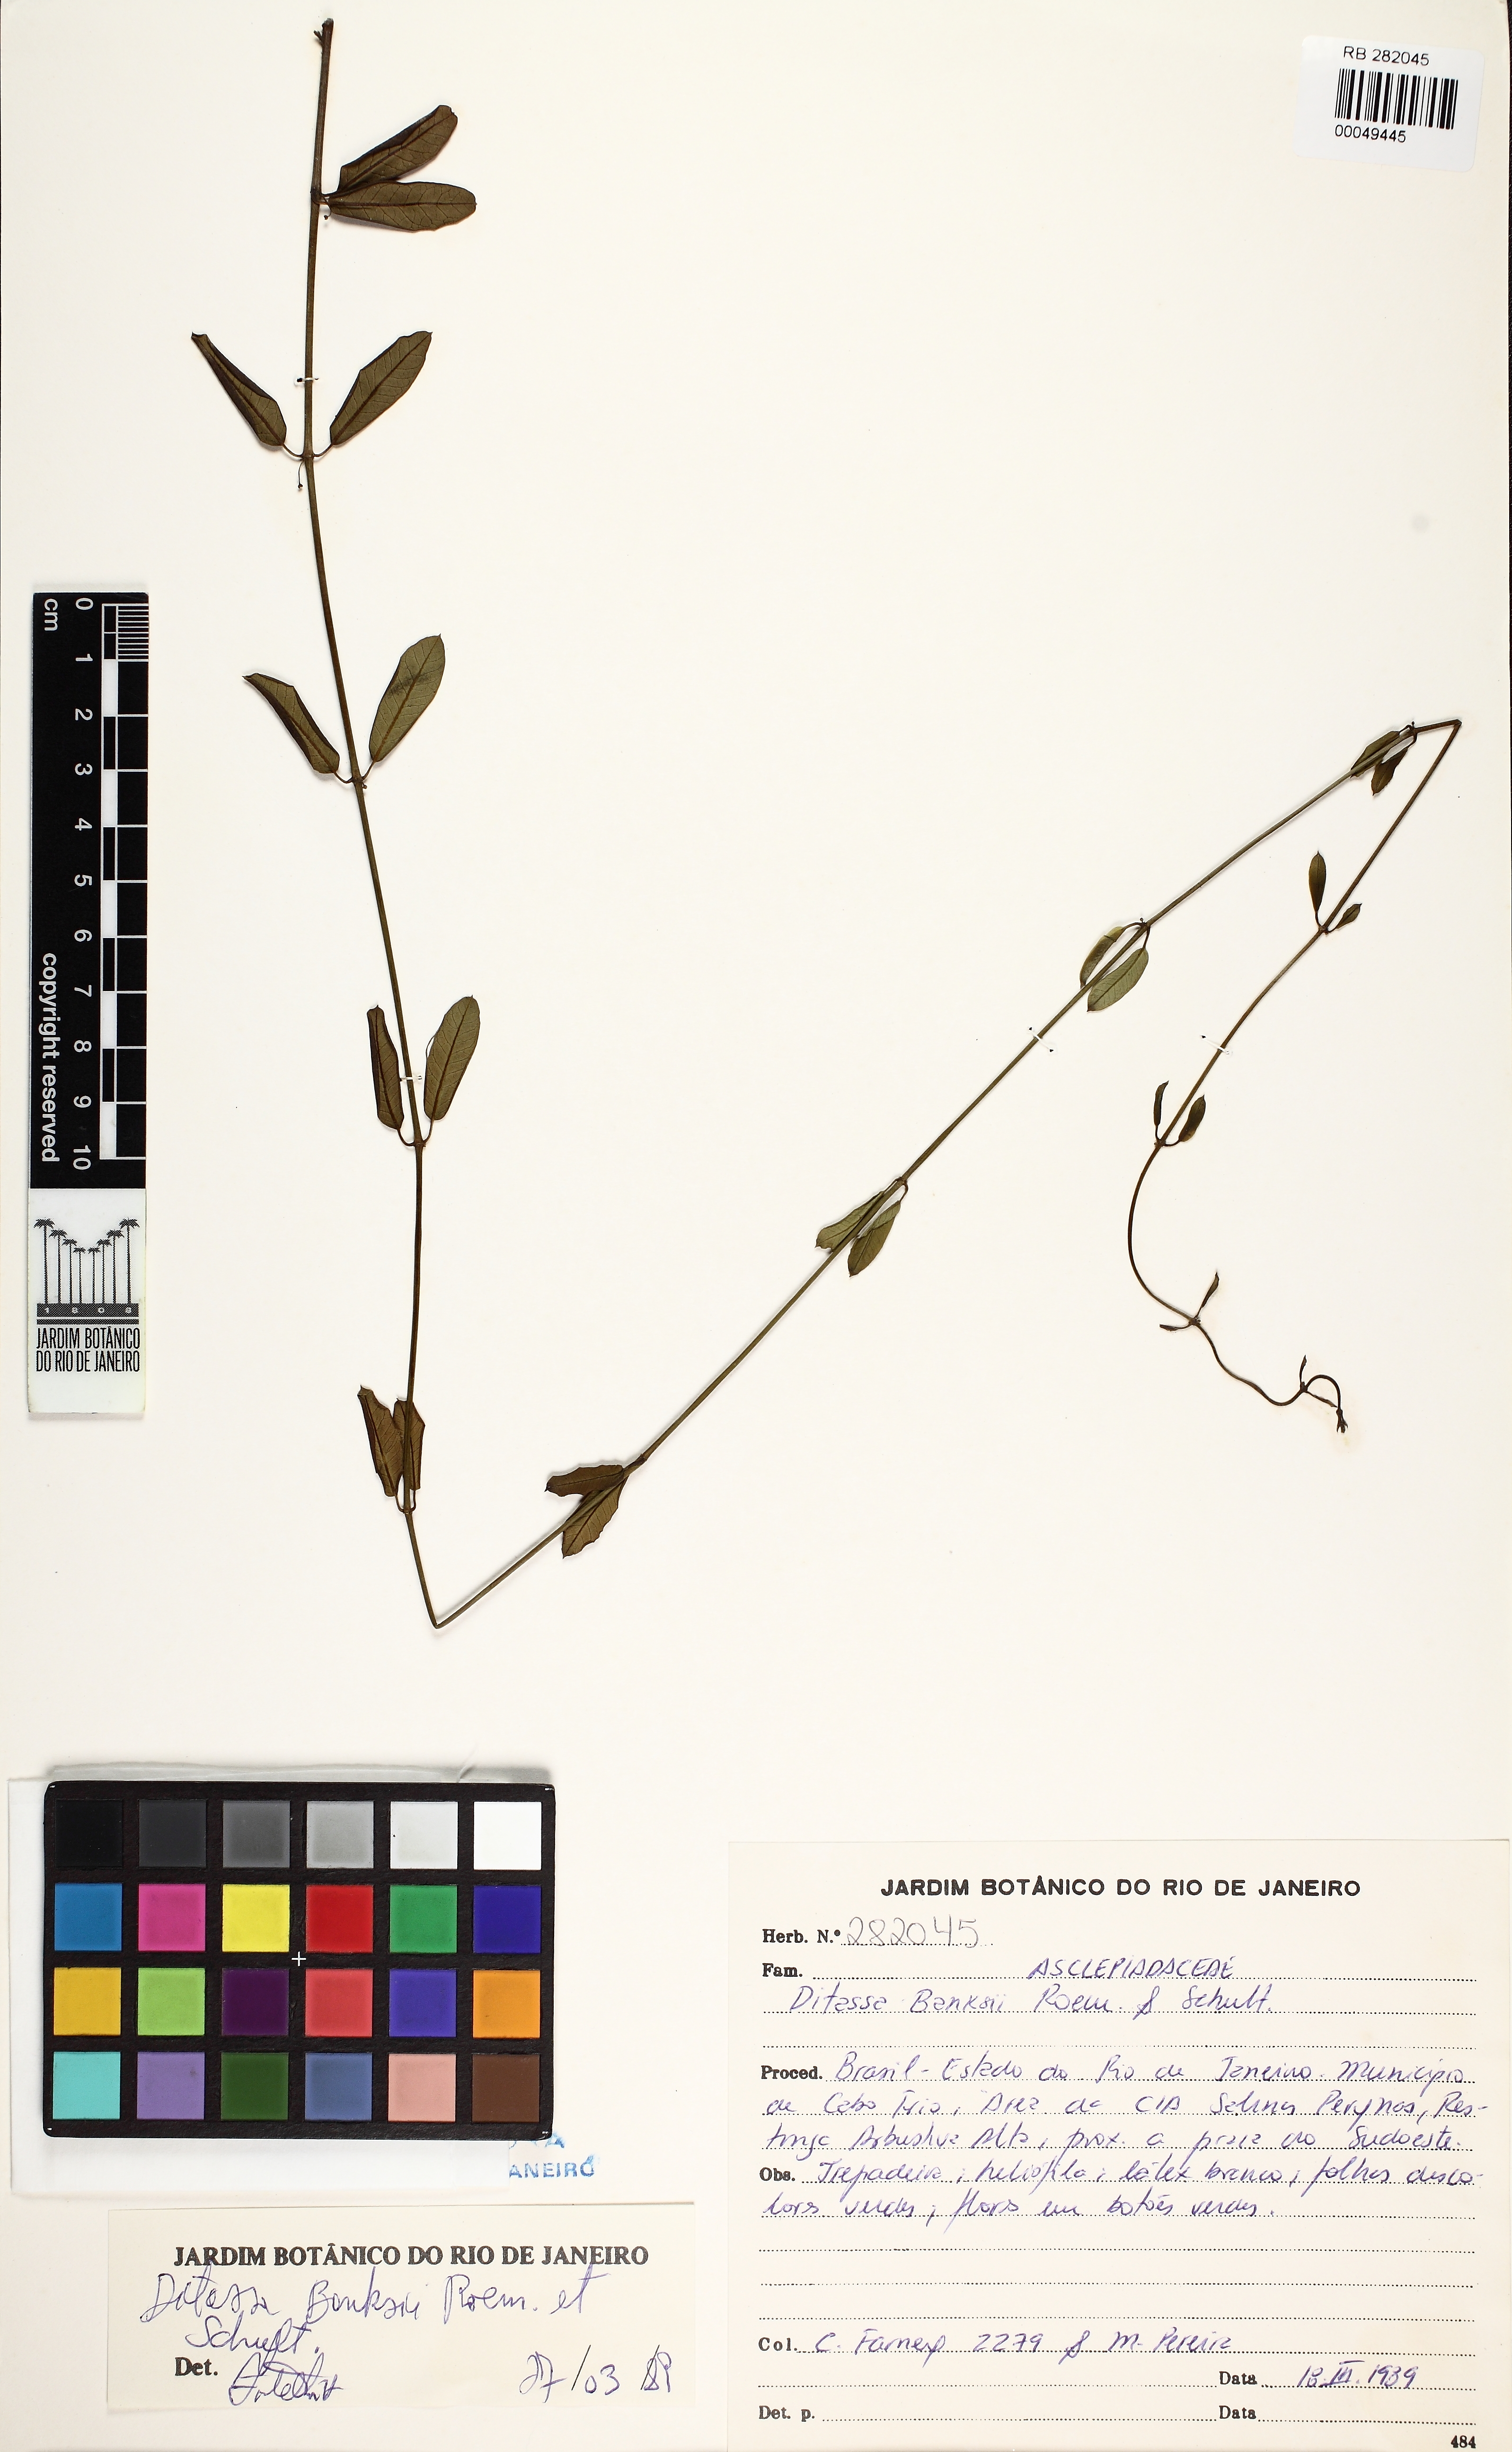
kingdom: Plantae
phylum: Tracheophyta
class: Magnoliopsida
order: Gentianales
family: Apocynaceae
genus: Ditassa
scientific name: Ditassa banksii
